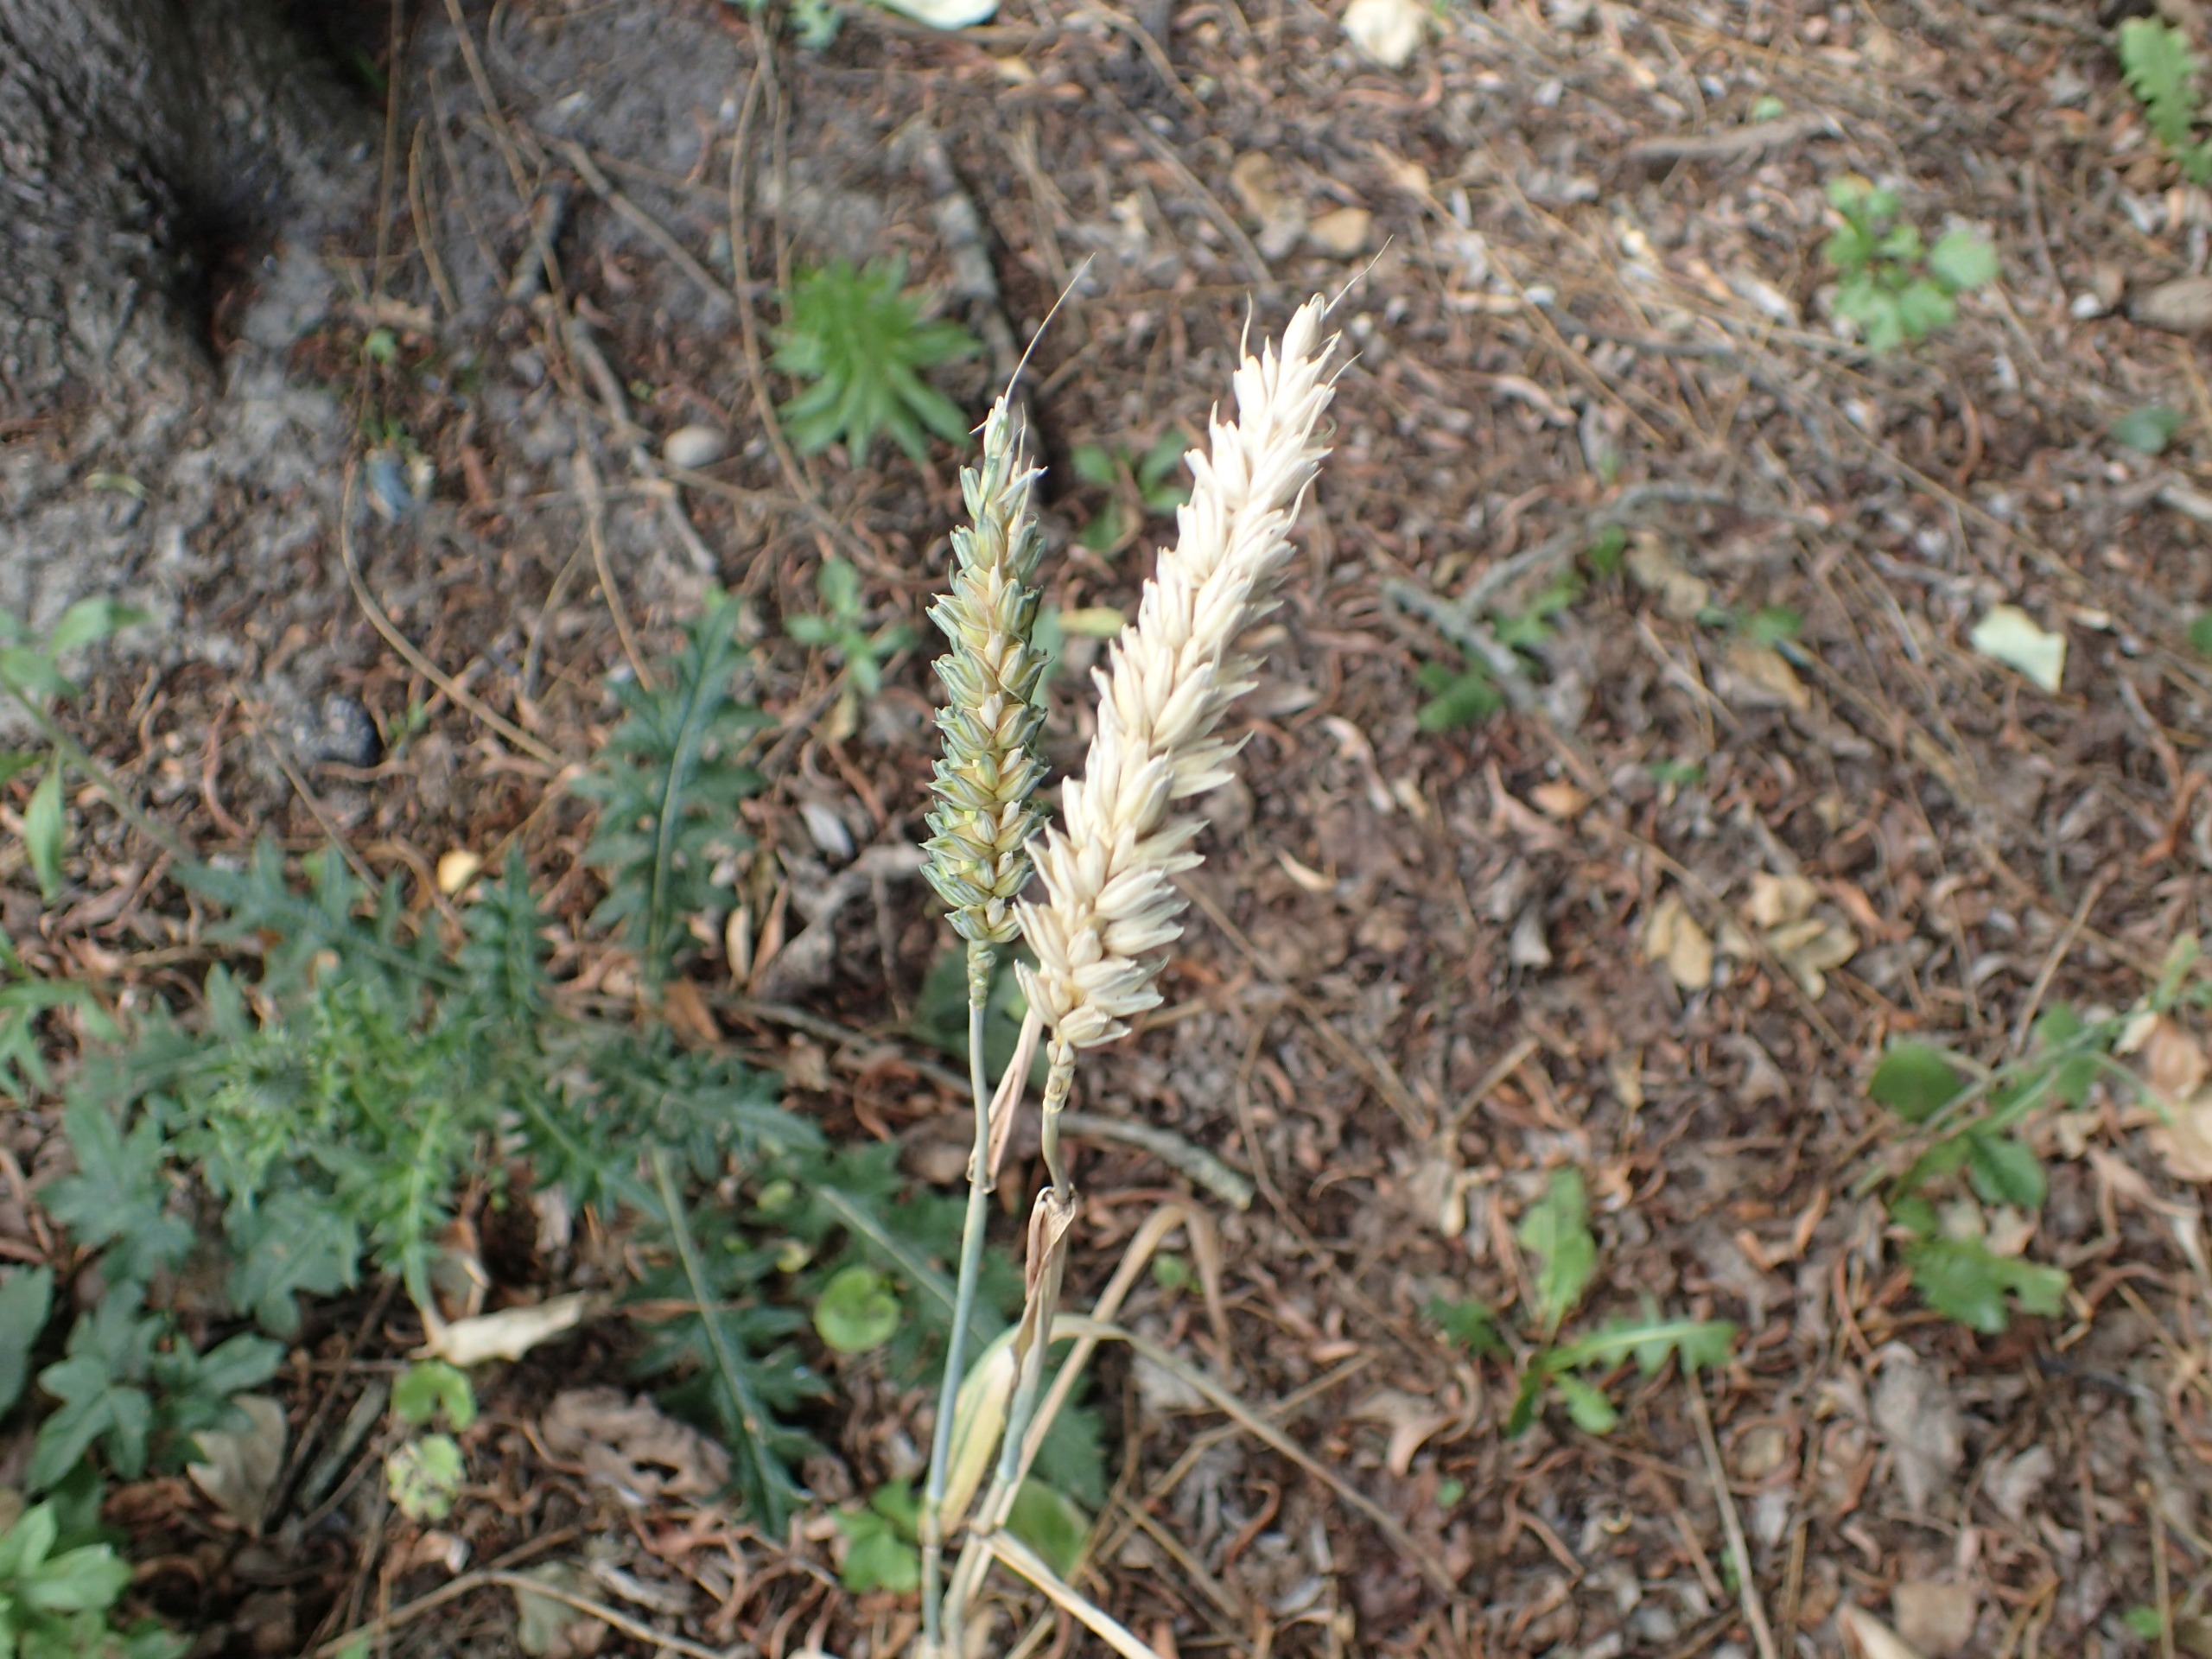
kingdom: Plantae
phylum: Tracheophyta
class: Liliopsida
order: Poales
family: Poaceae
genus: Triticum
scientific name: Triticum aestivum
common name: Almindelig hvede
